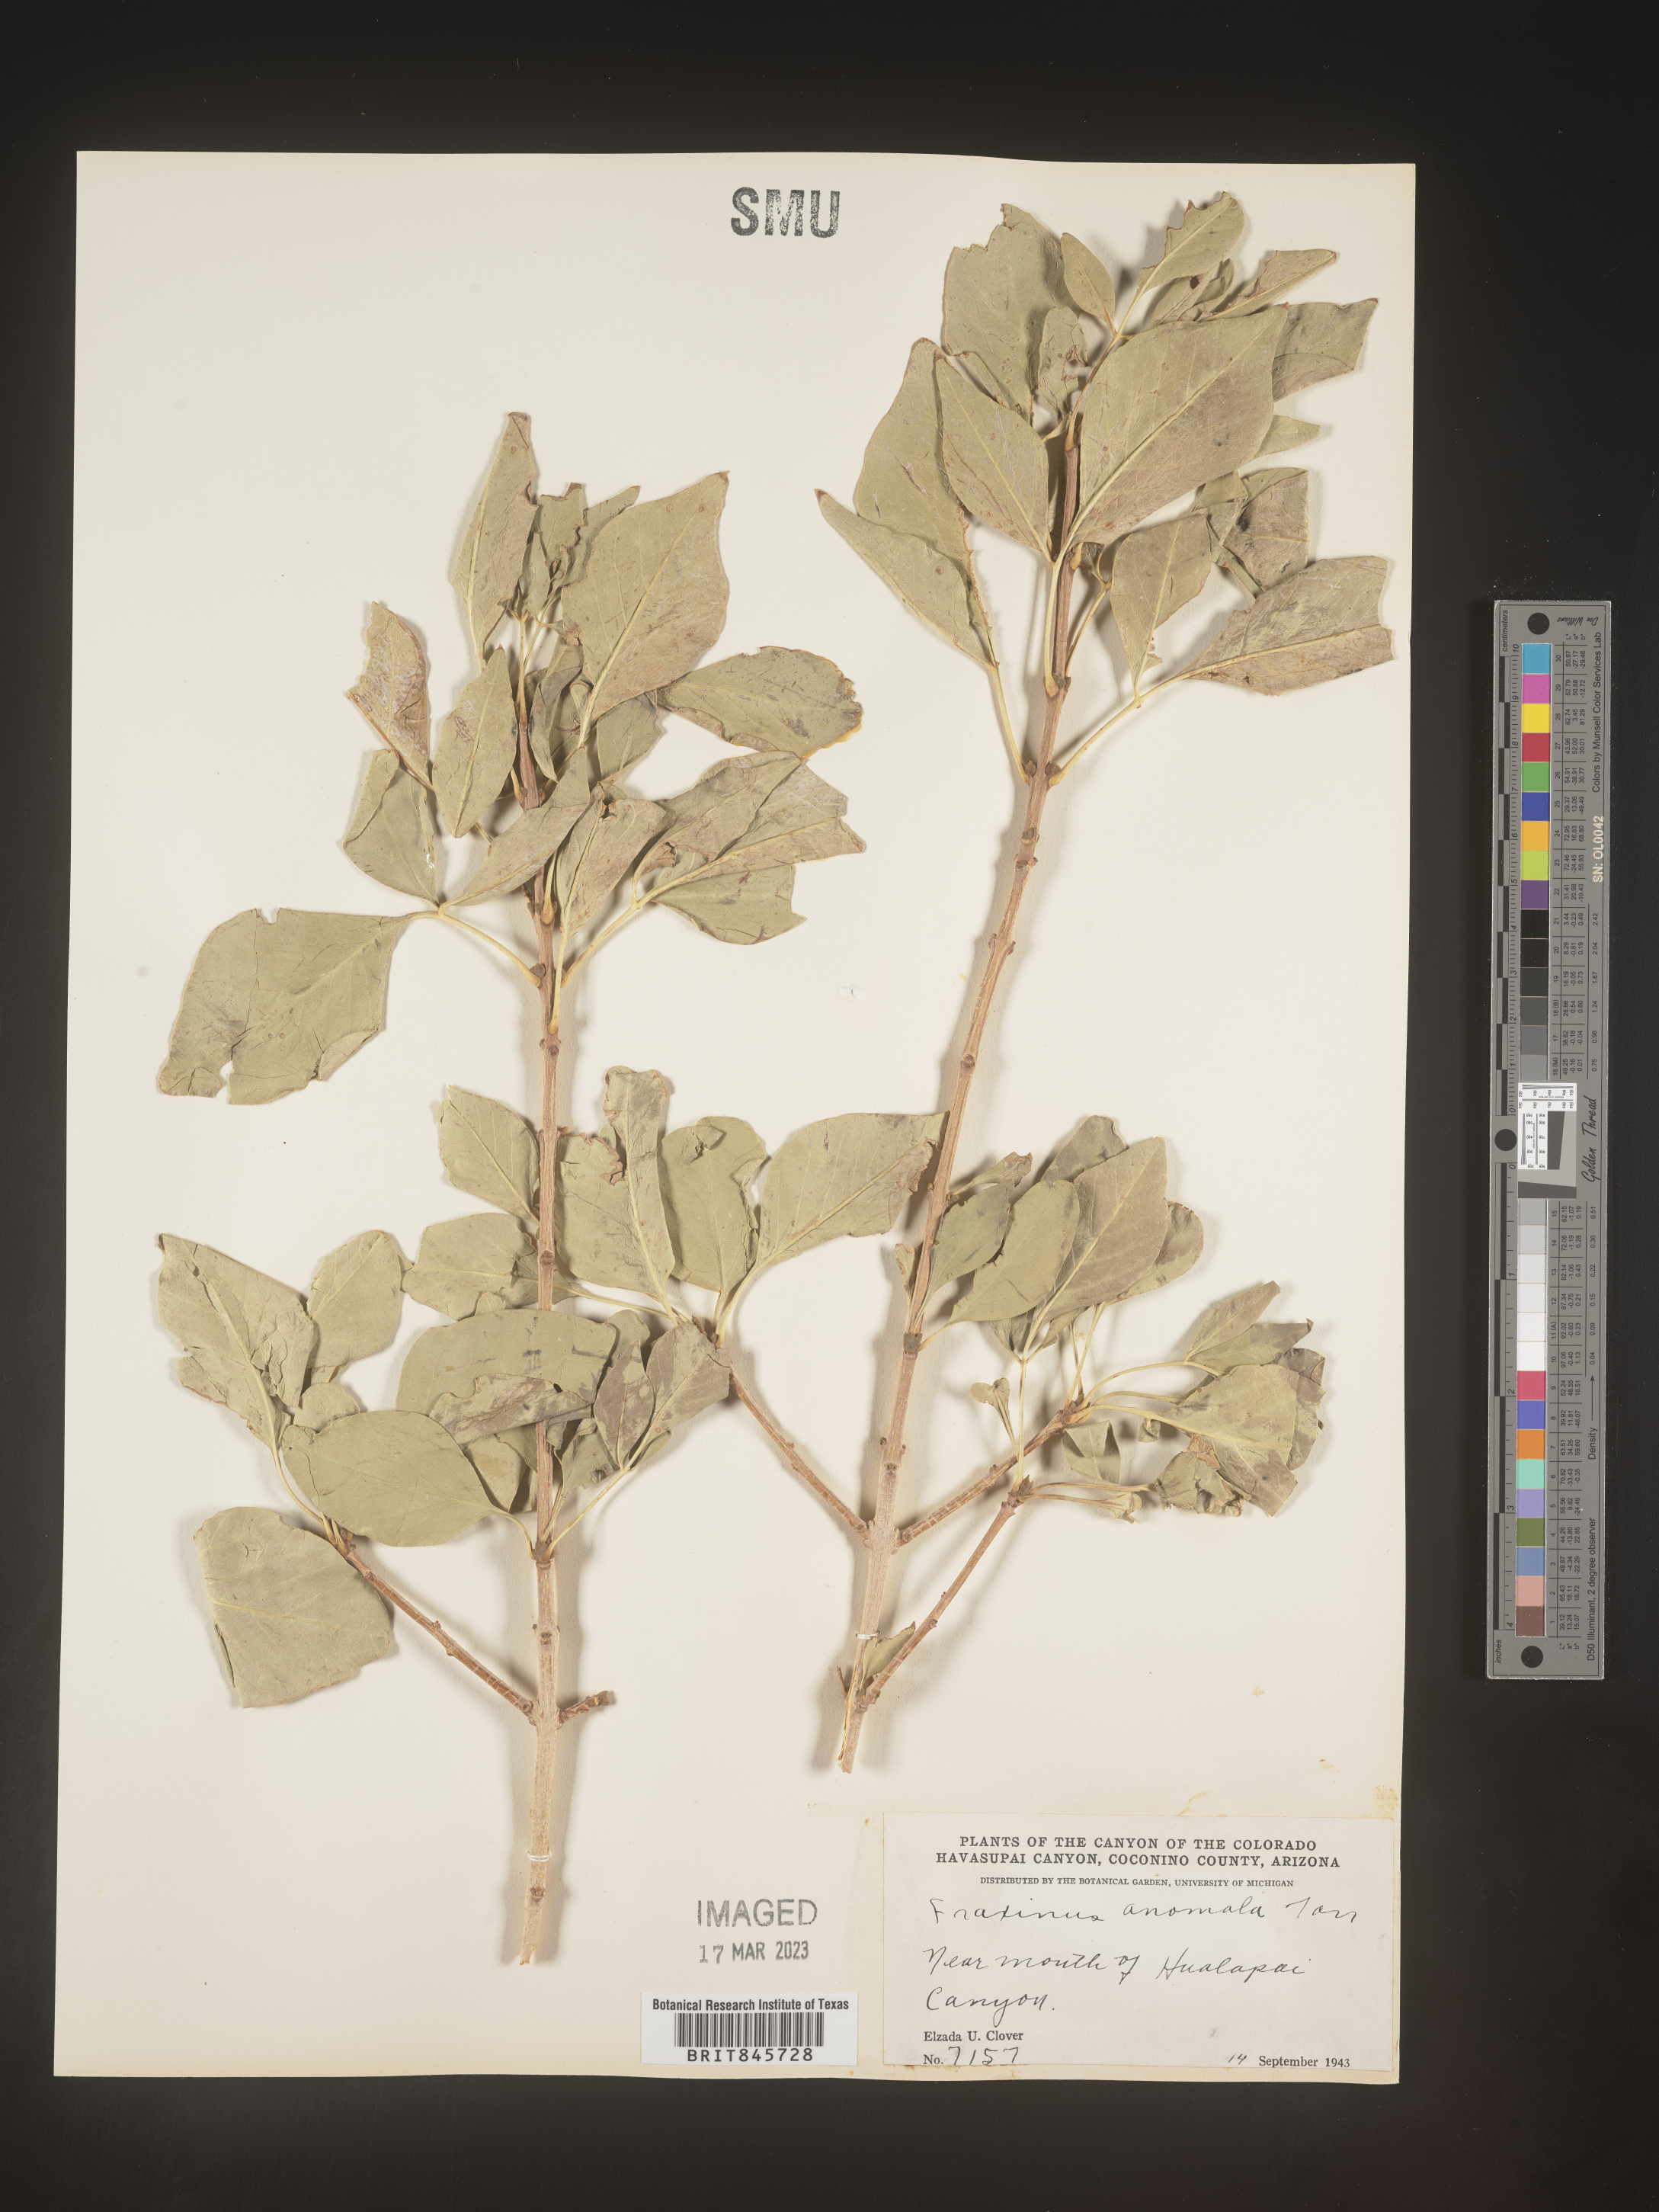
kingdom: Plantae
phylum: Tracheophyta
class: Magnoliopsida
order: Lamiales
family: Oleaceae
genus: Fraxinus
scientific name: Fraxinus anomala
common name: Utah ash
